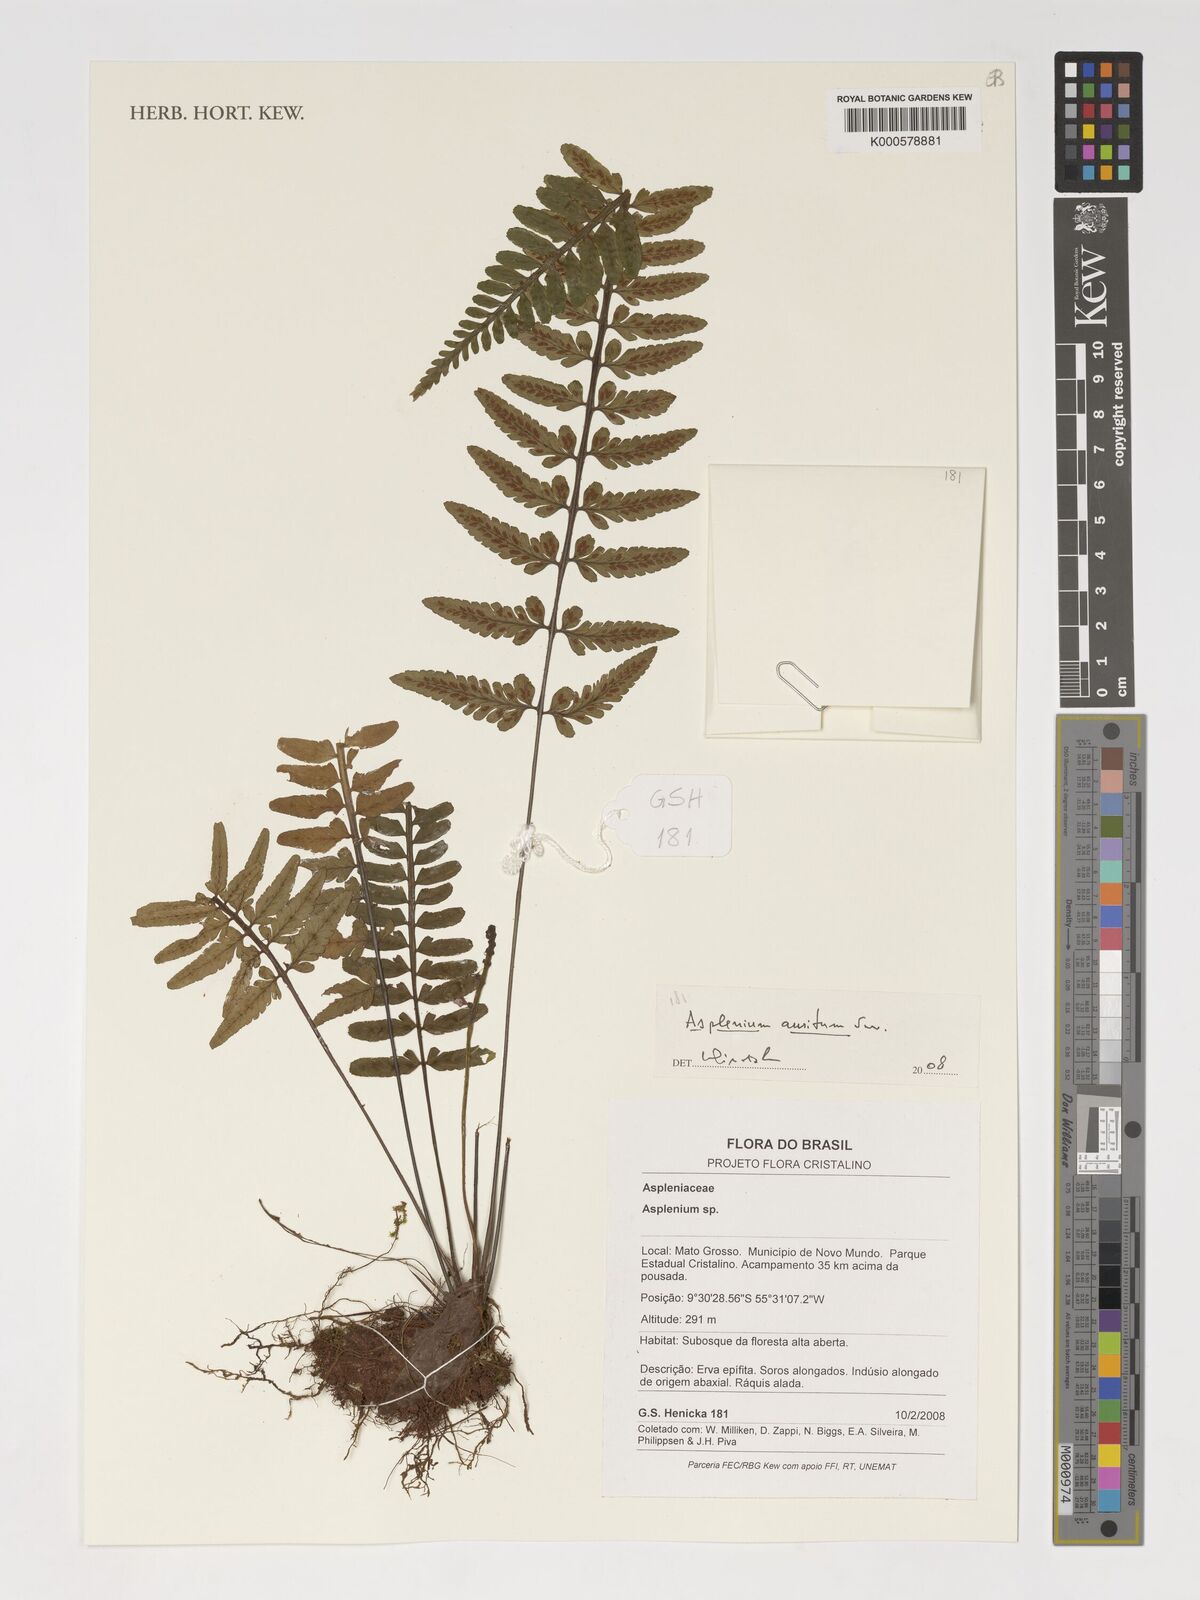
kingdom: Plantae
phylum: Tracheophyta
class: Polypodiopsida
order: Polypodiales
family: Aspleniaceae
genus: Asplenium
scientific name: Asplenium auritum
